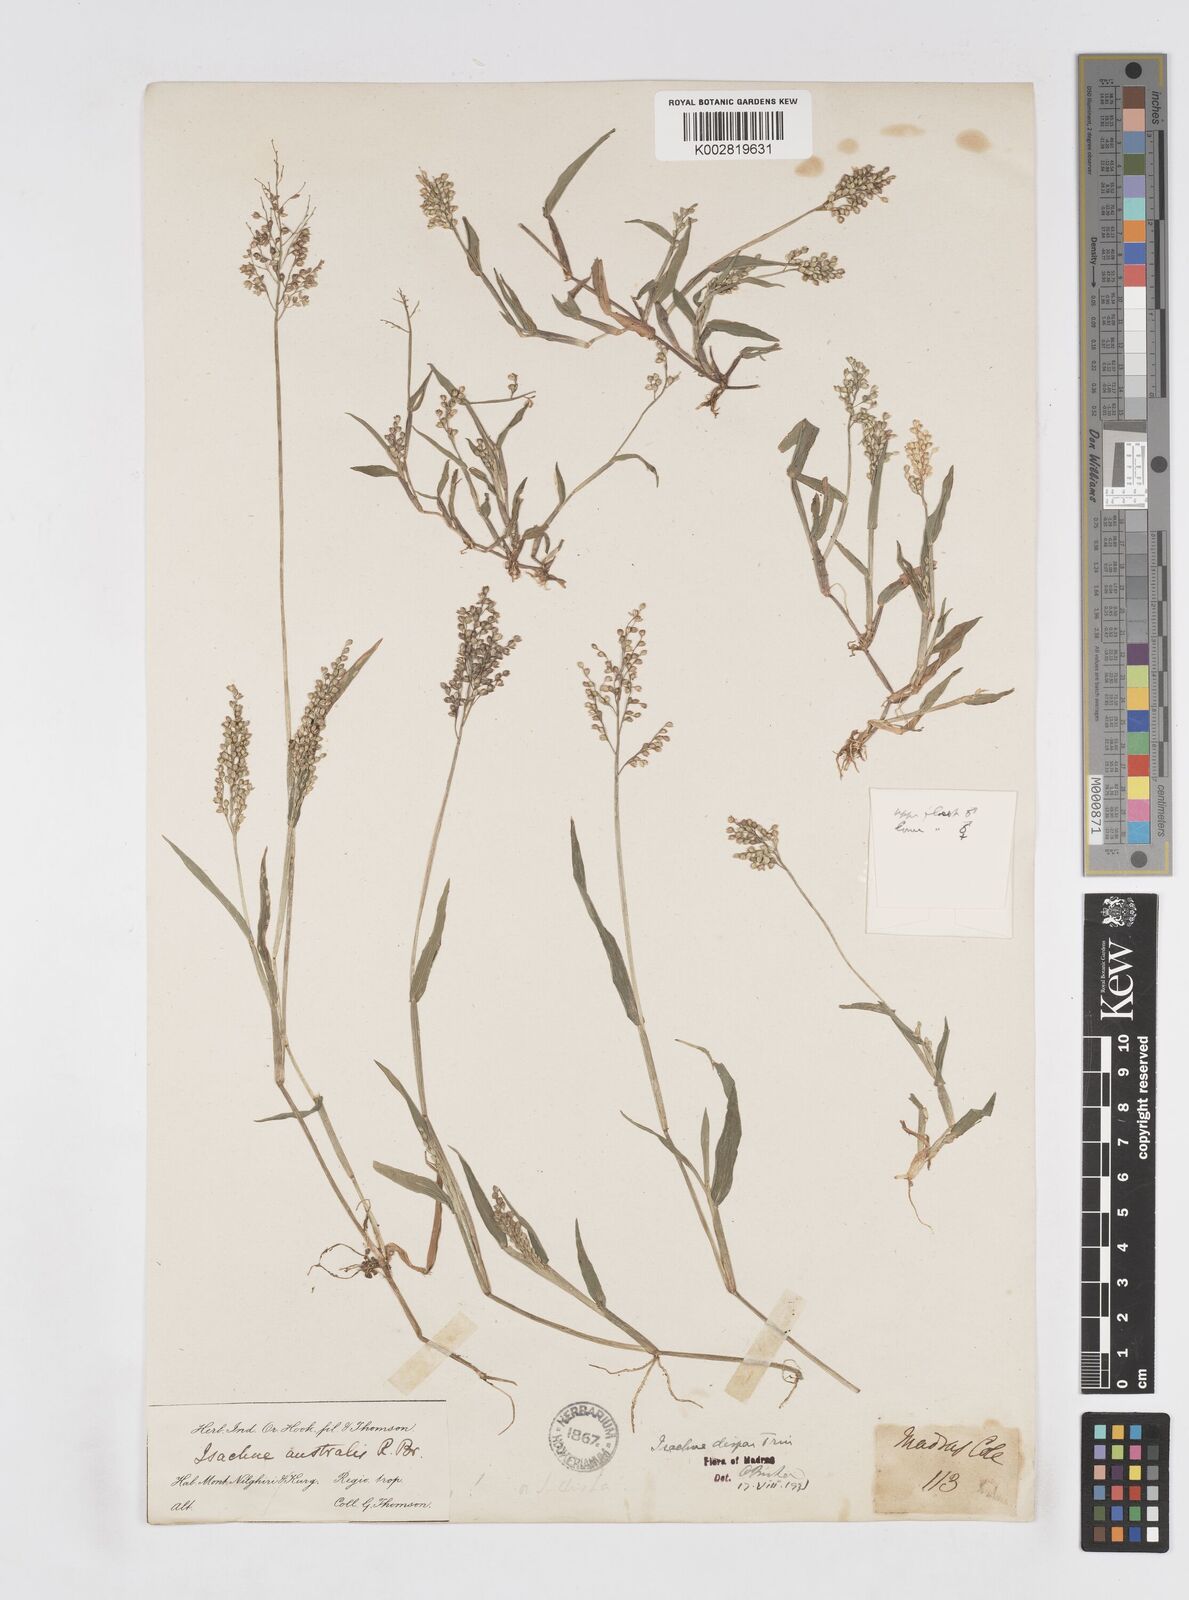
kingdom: Plantae
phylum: Tracheophyta
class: Liliopsida
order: Poales
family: Poaceae
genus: Isachne
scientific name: Isachne globosa
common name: Swamp millet
